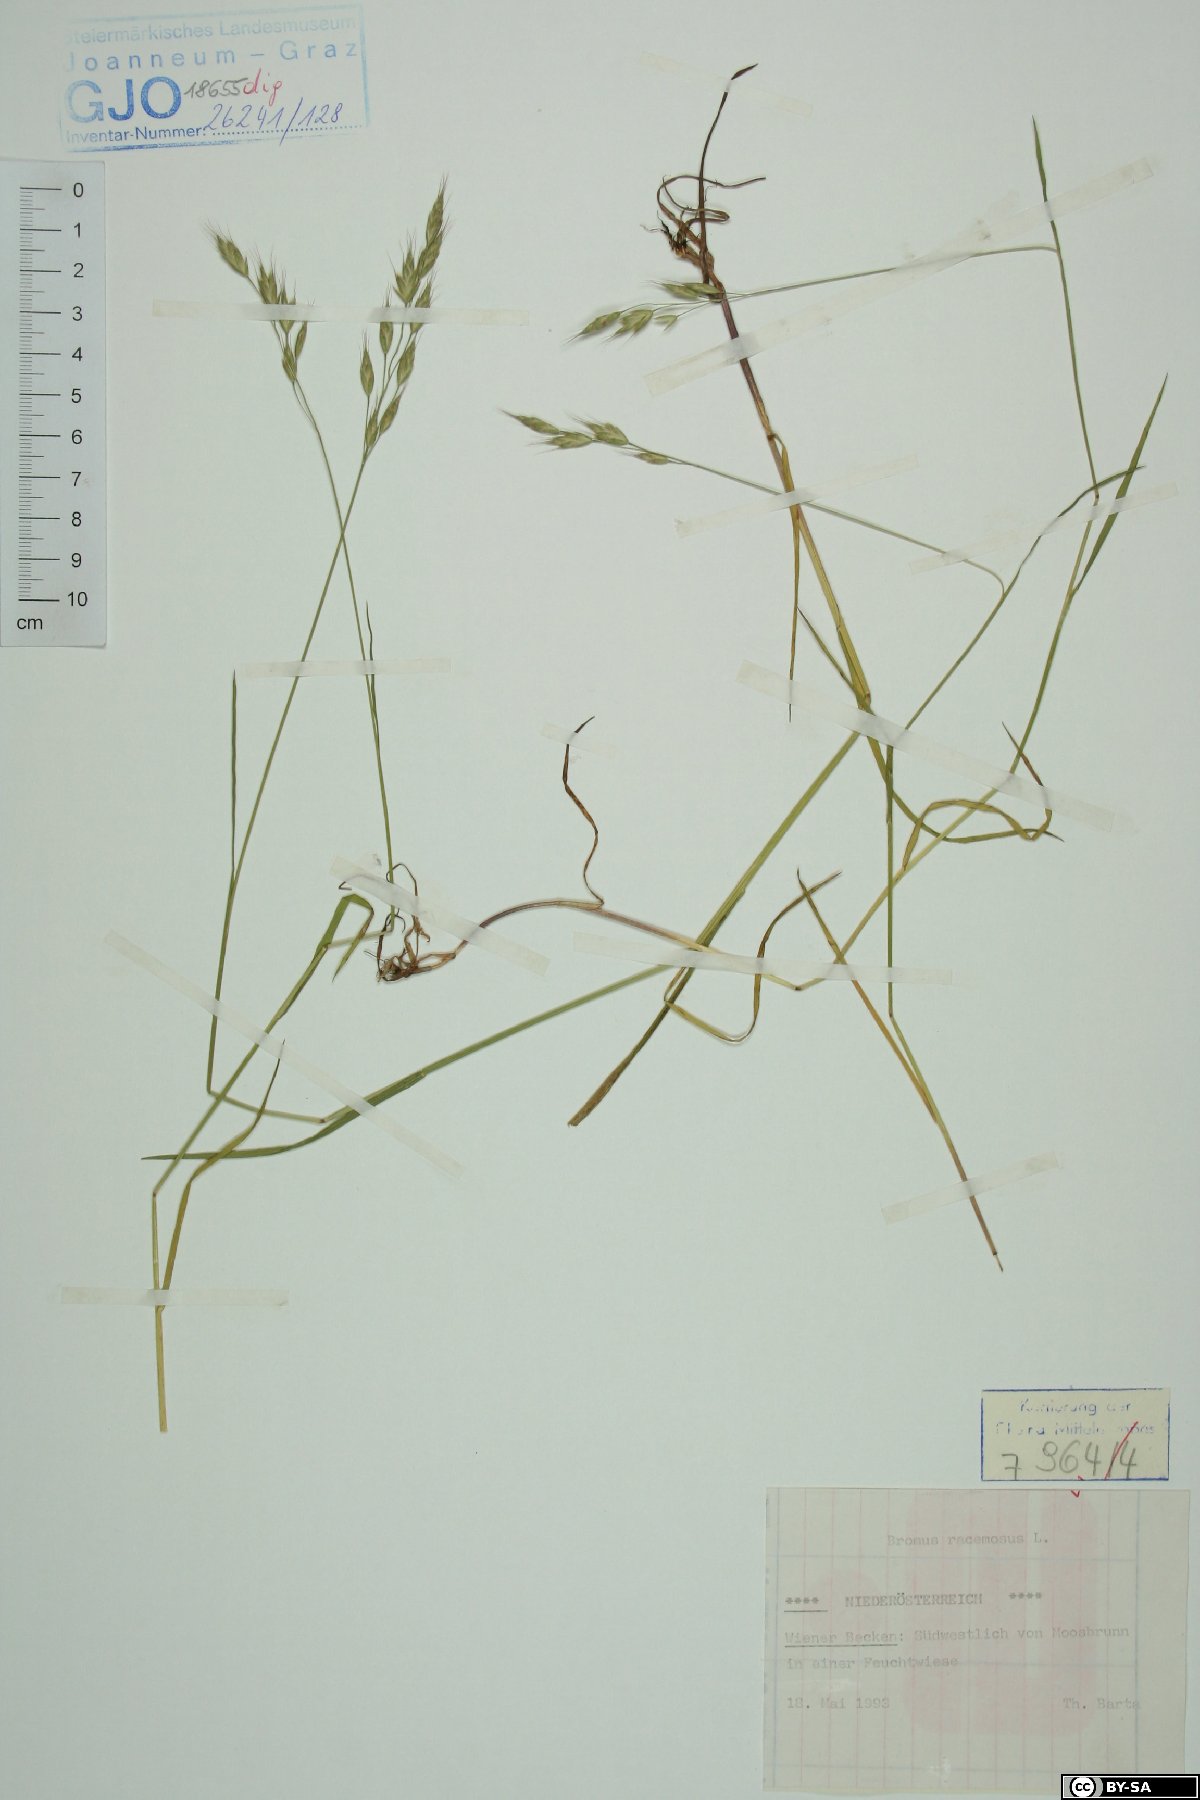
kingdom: Plantae
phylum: Tracheophyta
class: Liliopsida
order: Poales
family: Poaceae
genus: Bromus
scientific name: Bromus racemosus
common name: Bald brome
